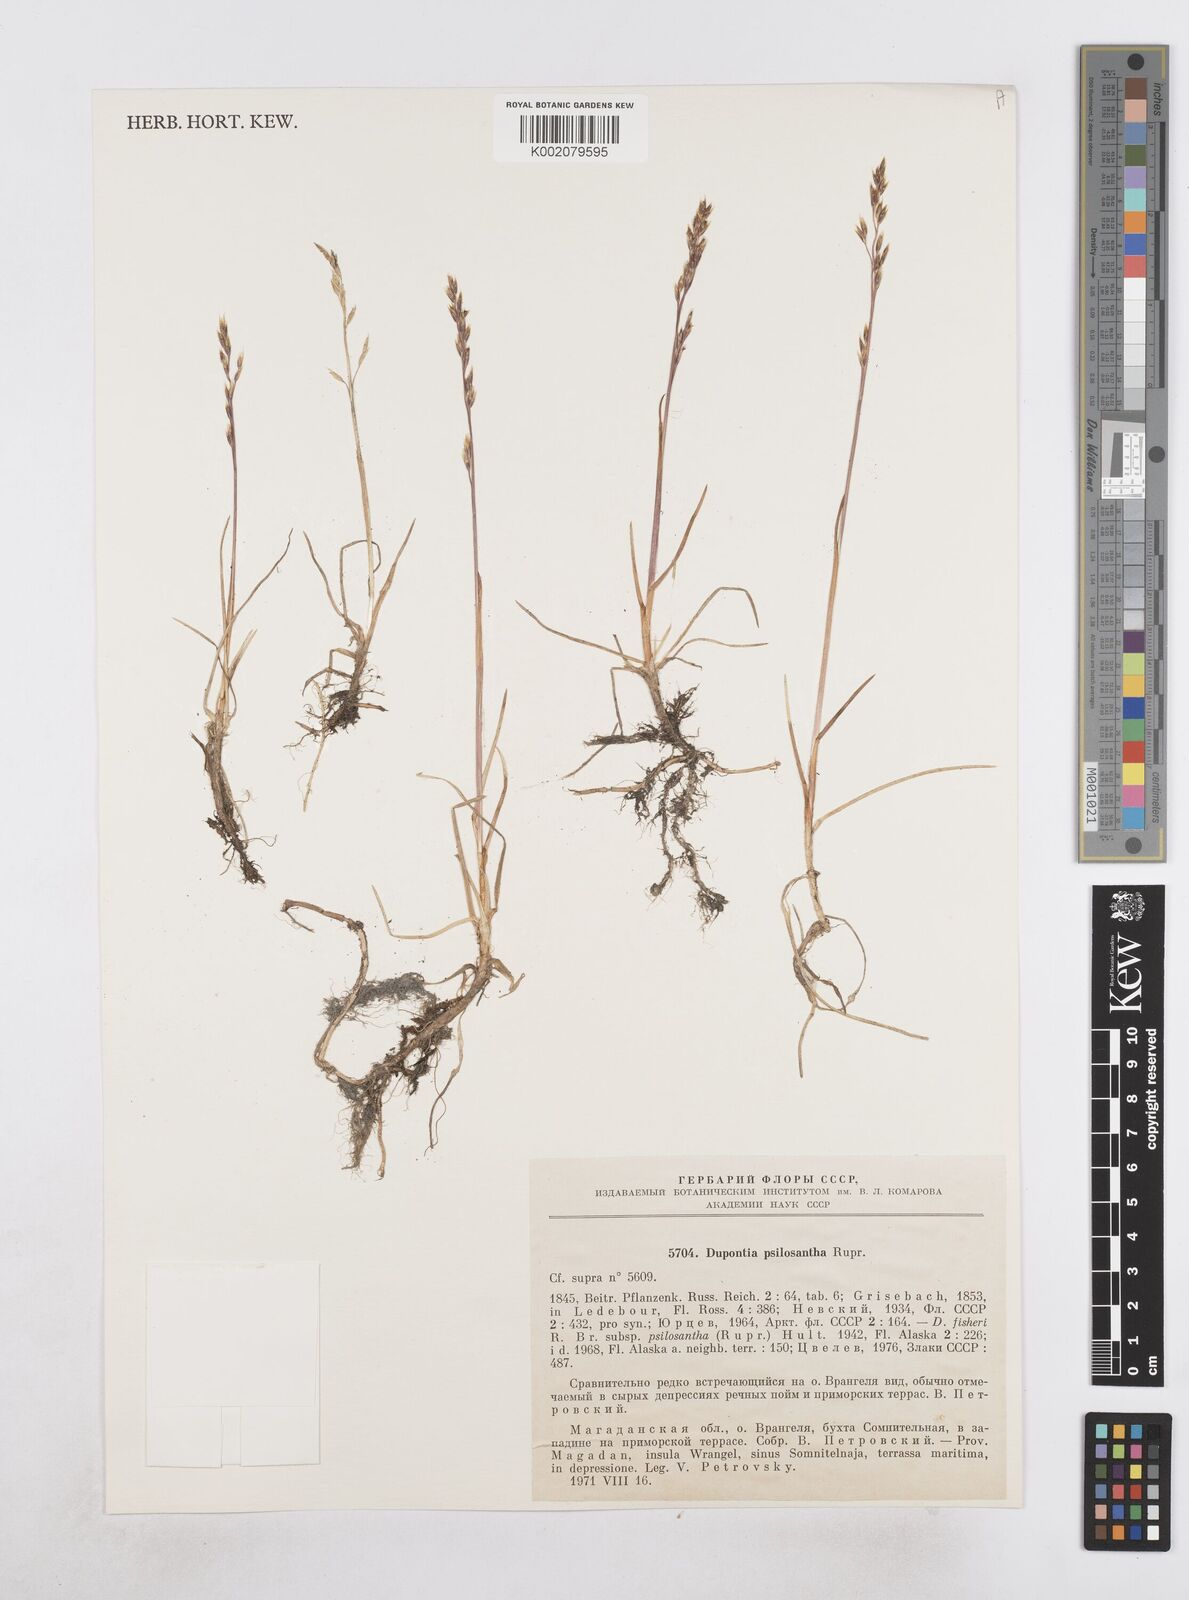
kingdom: Plantae
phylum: Tracheophyta
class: Liliopsida
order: Poales
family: Poaceae
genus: Dupontia
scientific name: Dupontia fisheri
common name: Tundra grass
